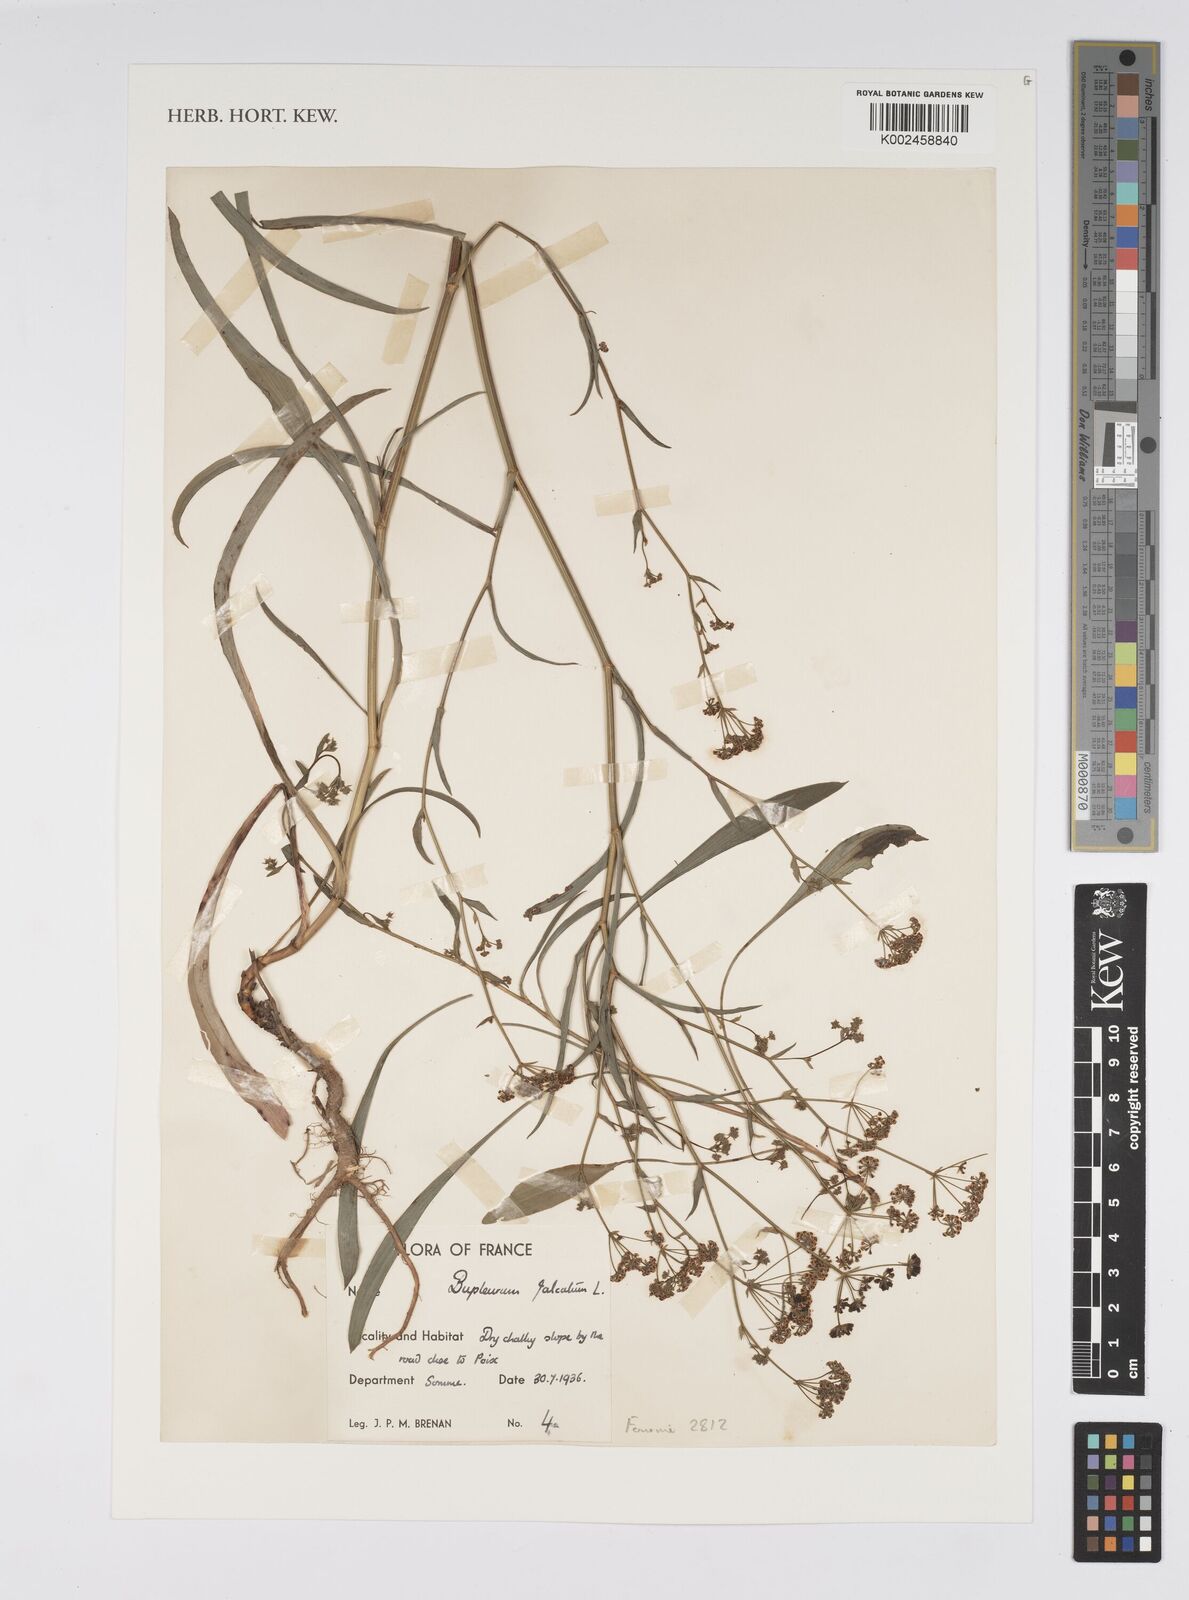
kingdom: Plantae
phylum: Tracheophyta
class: Magnoliopsida
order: Apiales
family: Apiaceae
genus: Bupleurum
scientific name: Bupleurum falcatum
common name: Sickle-leaved hare's-ear
